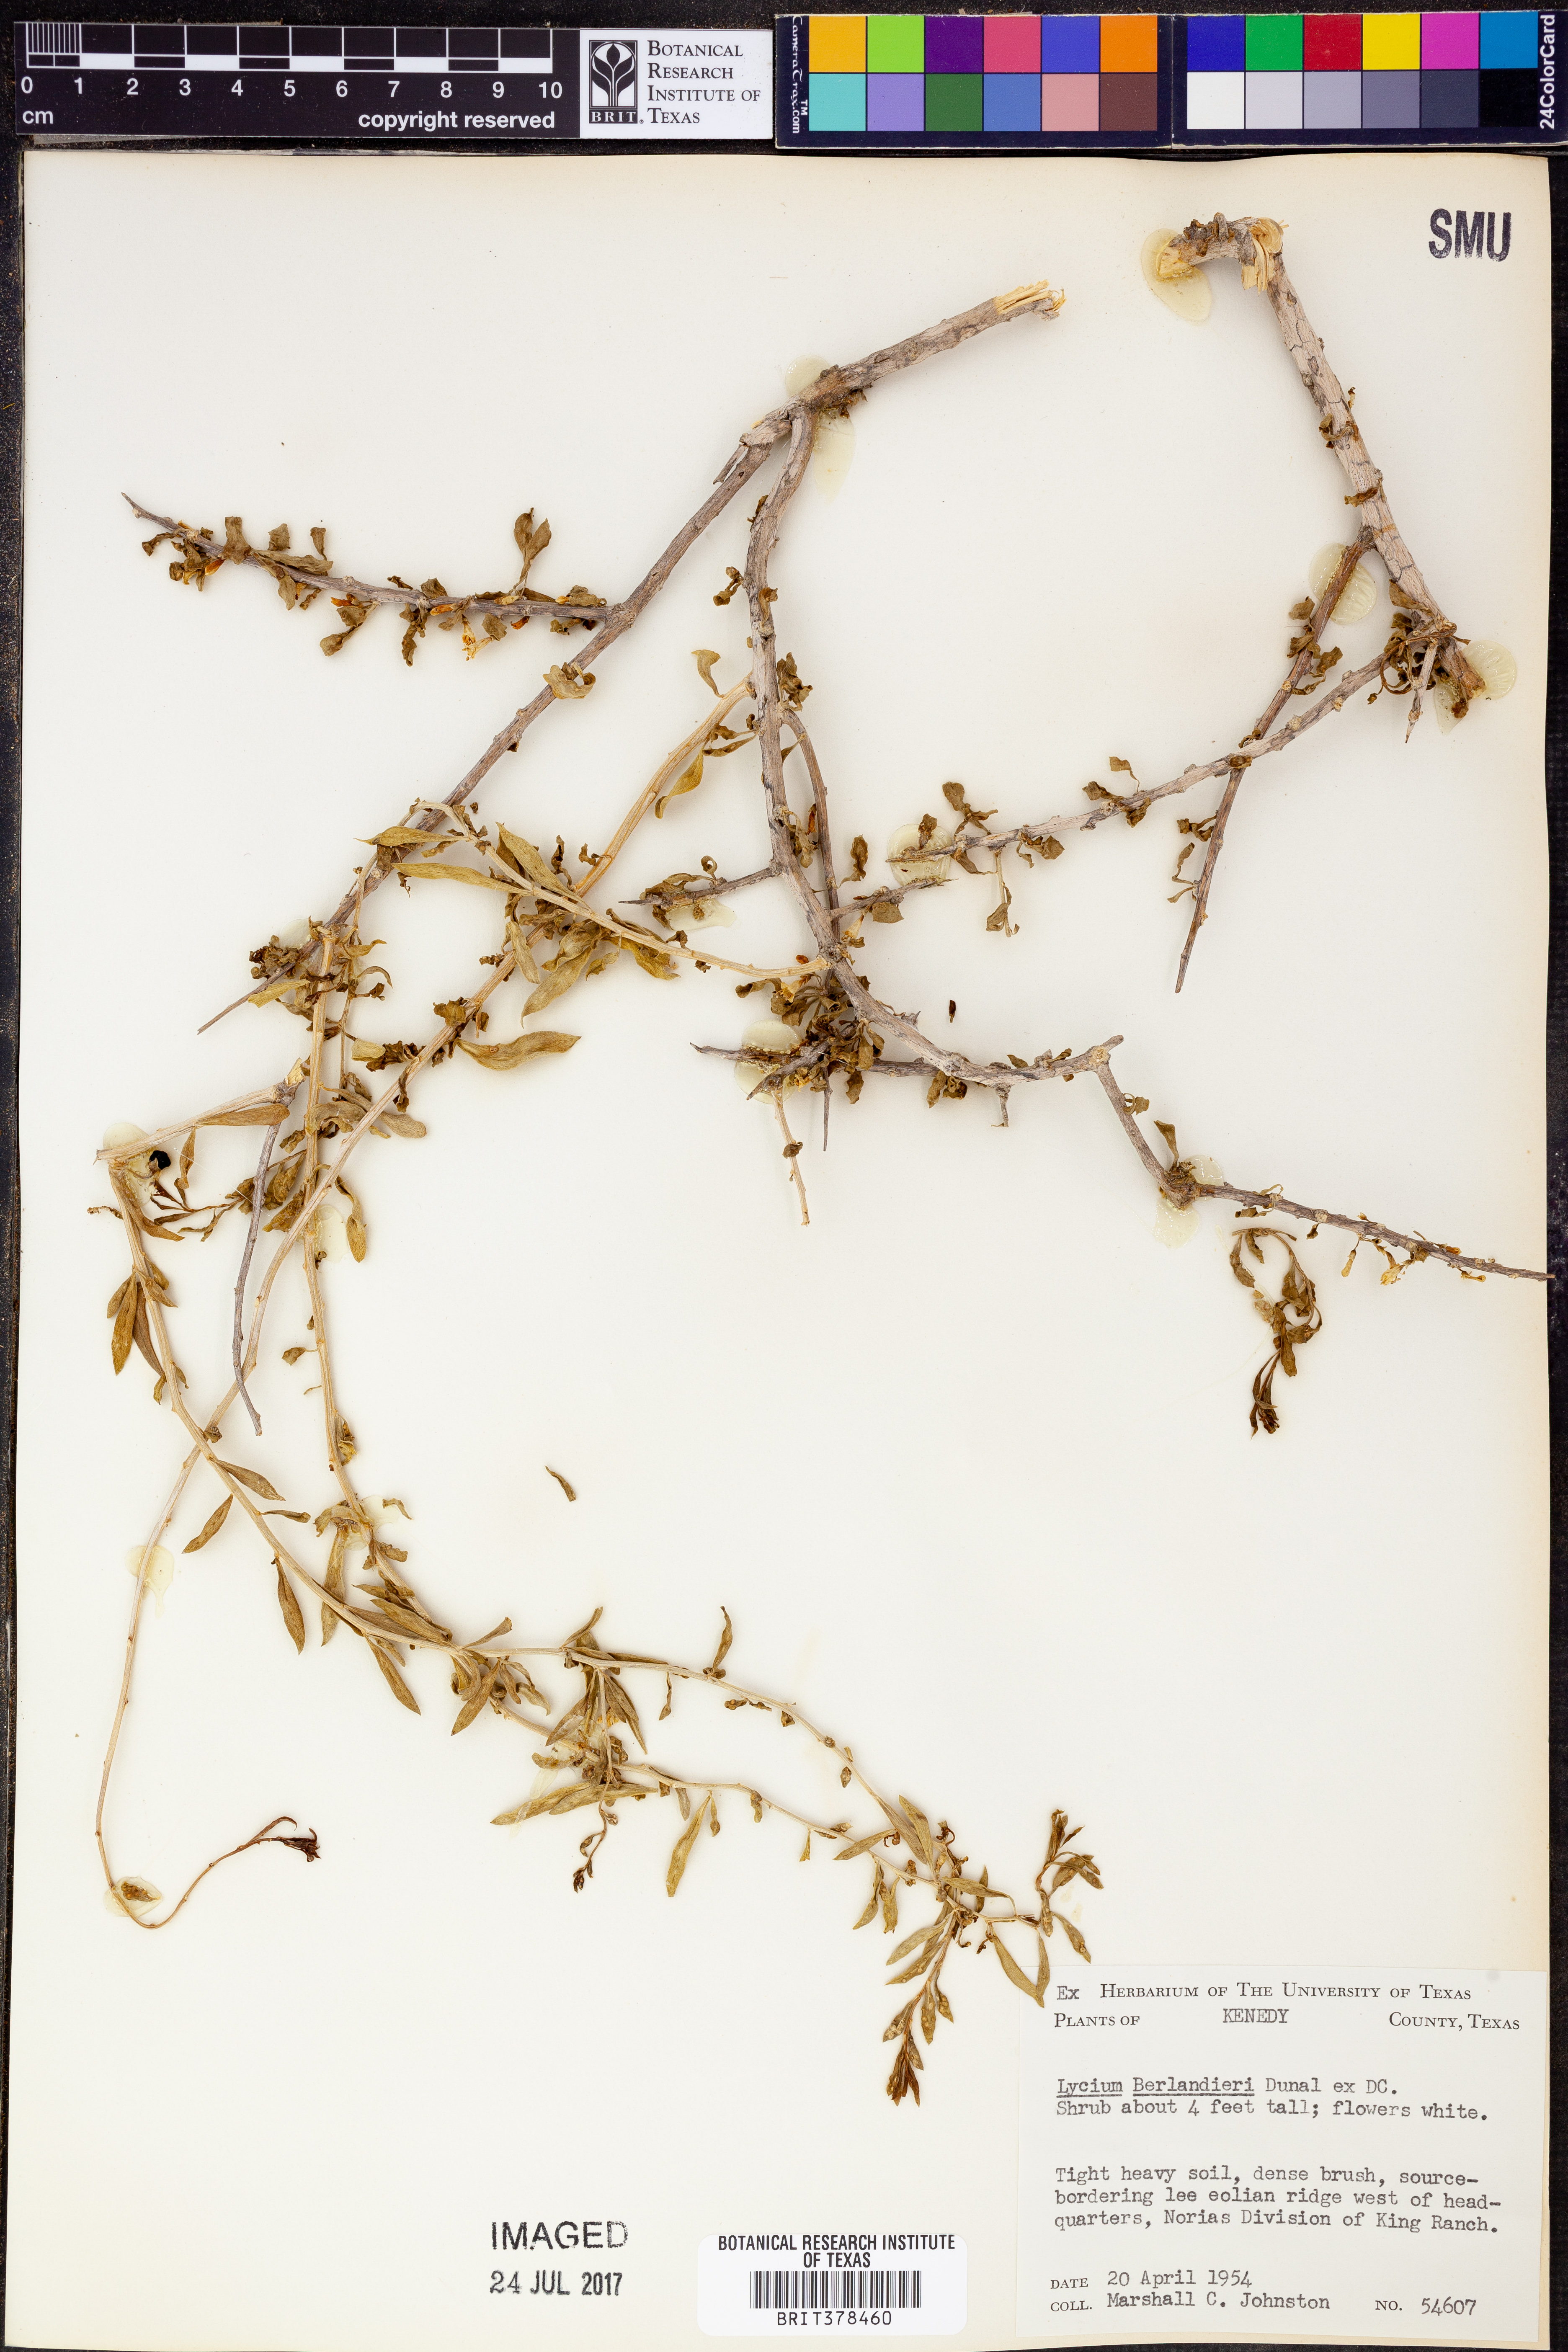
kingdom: Plantae
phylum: Tracheophyta
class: Magnoliopsida
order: Solanales
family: Solanaceae
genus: Lycium
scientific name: Lycium berlandieri
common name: Berlandier wolfberry
